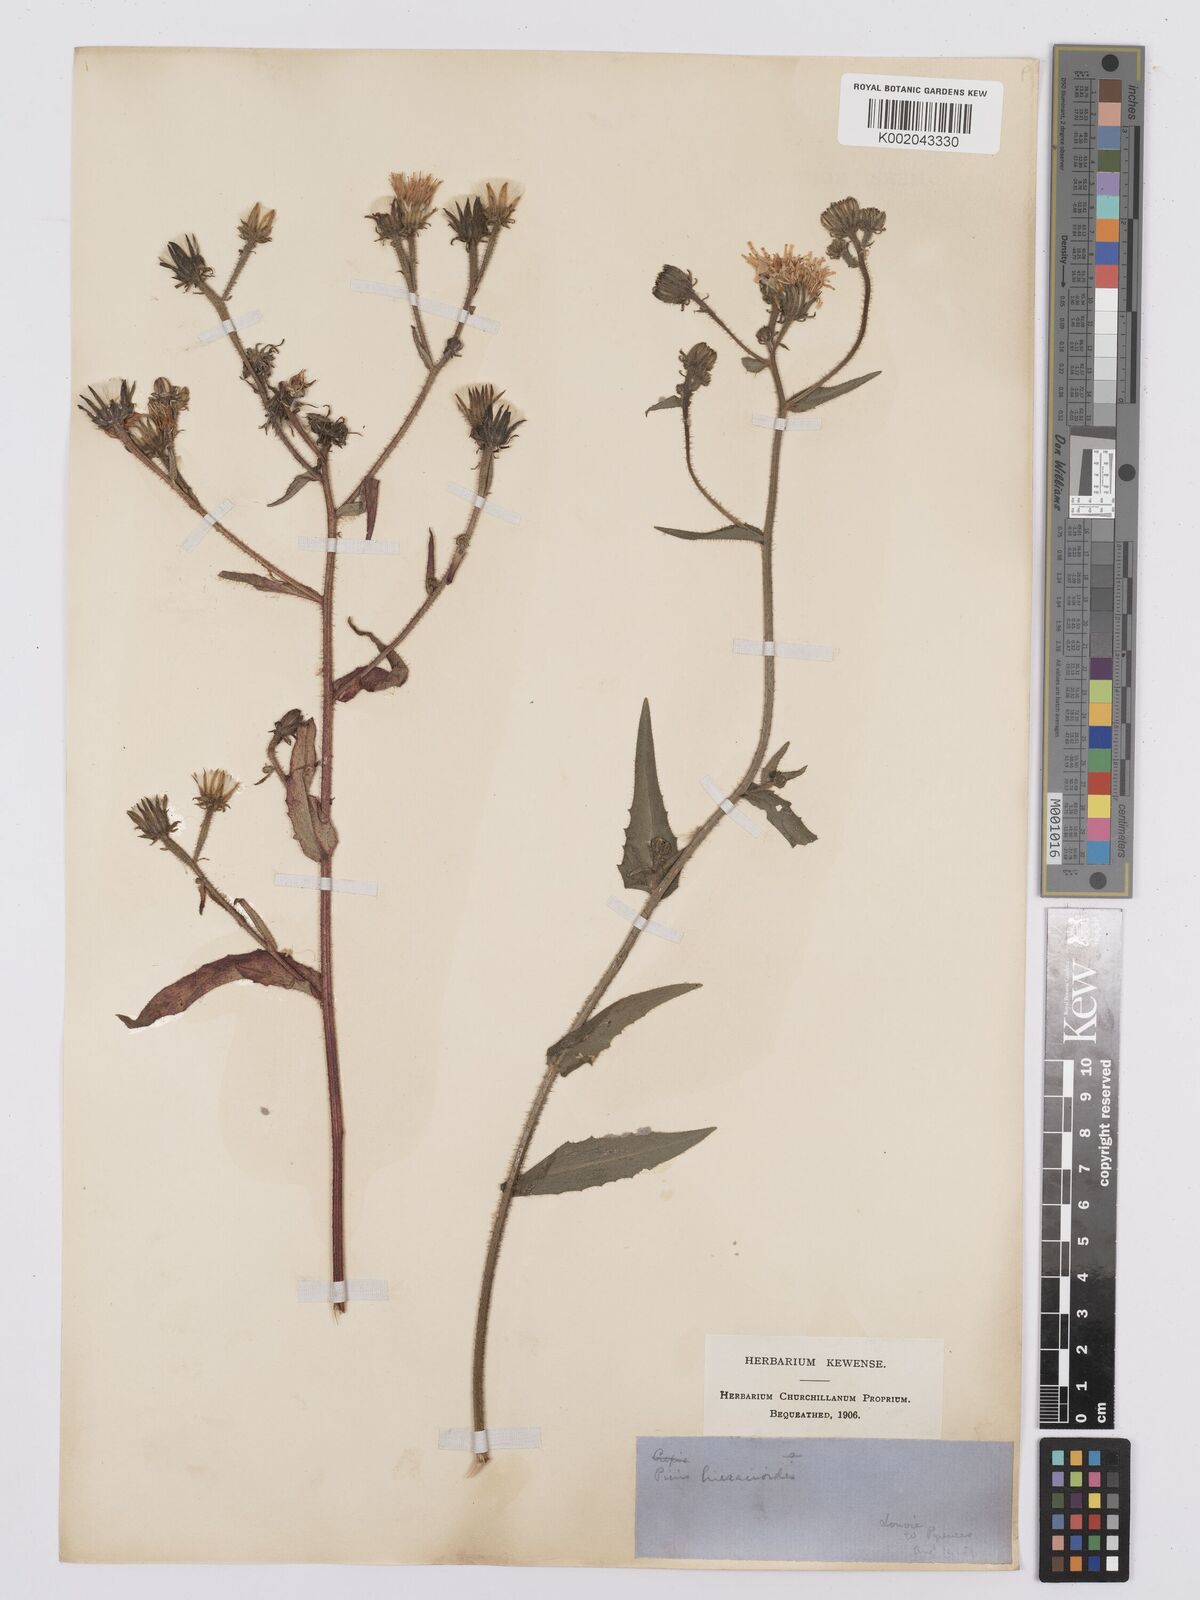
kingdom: Plantae
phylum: Tracheophyta
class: Magnoliopsida
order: Asterales
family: Asteraceae
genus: Picris
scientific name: Picris hieracioides
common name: Hawkweed oxtongue
